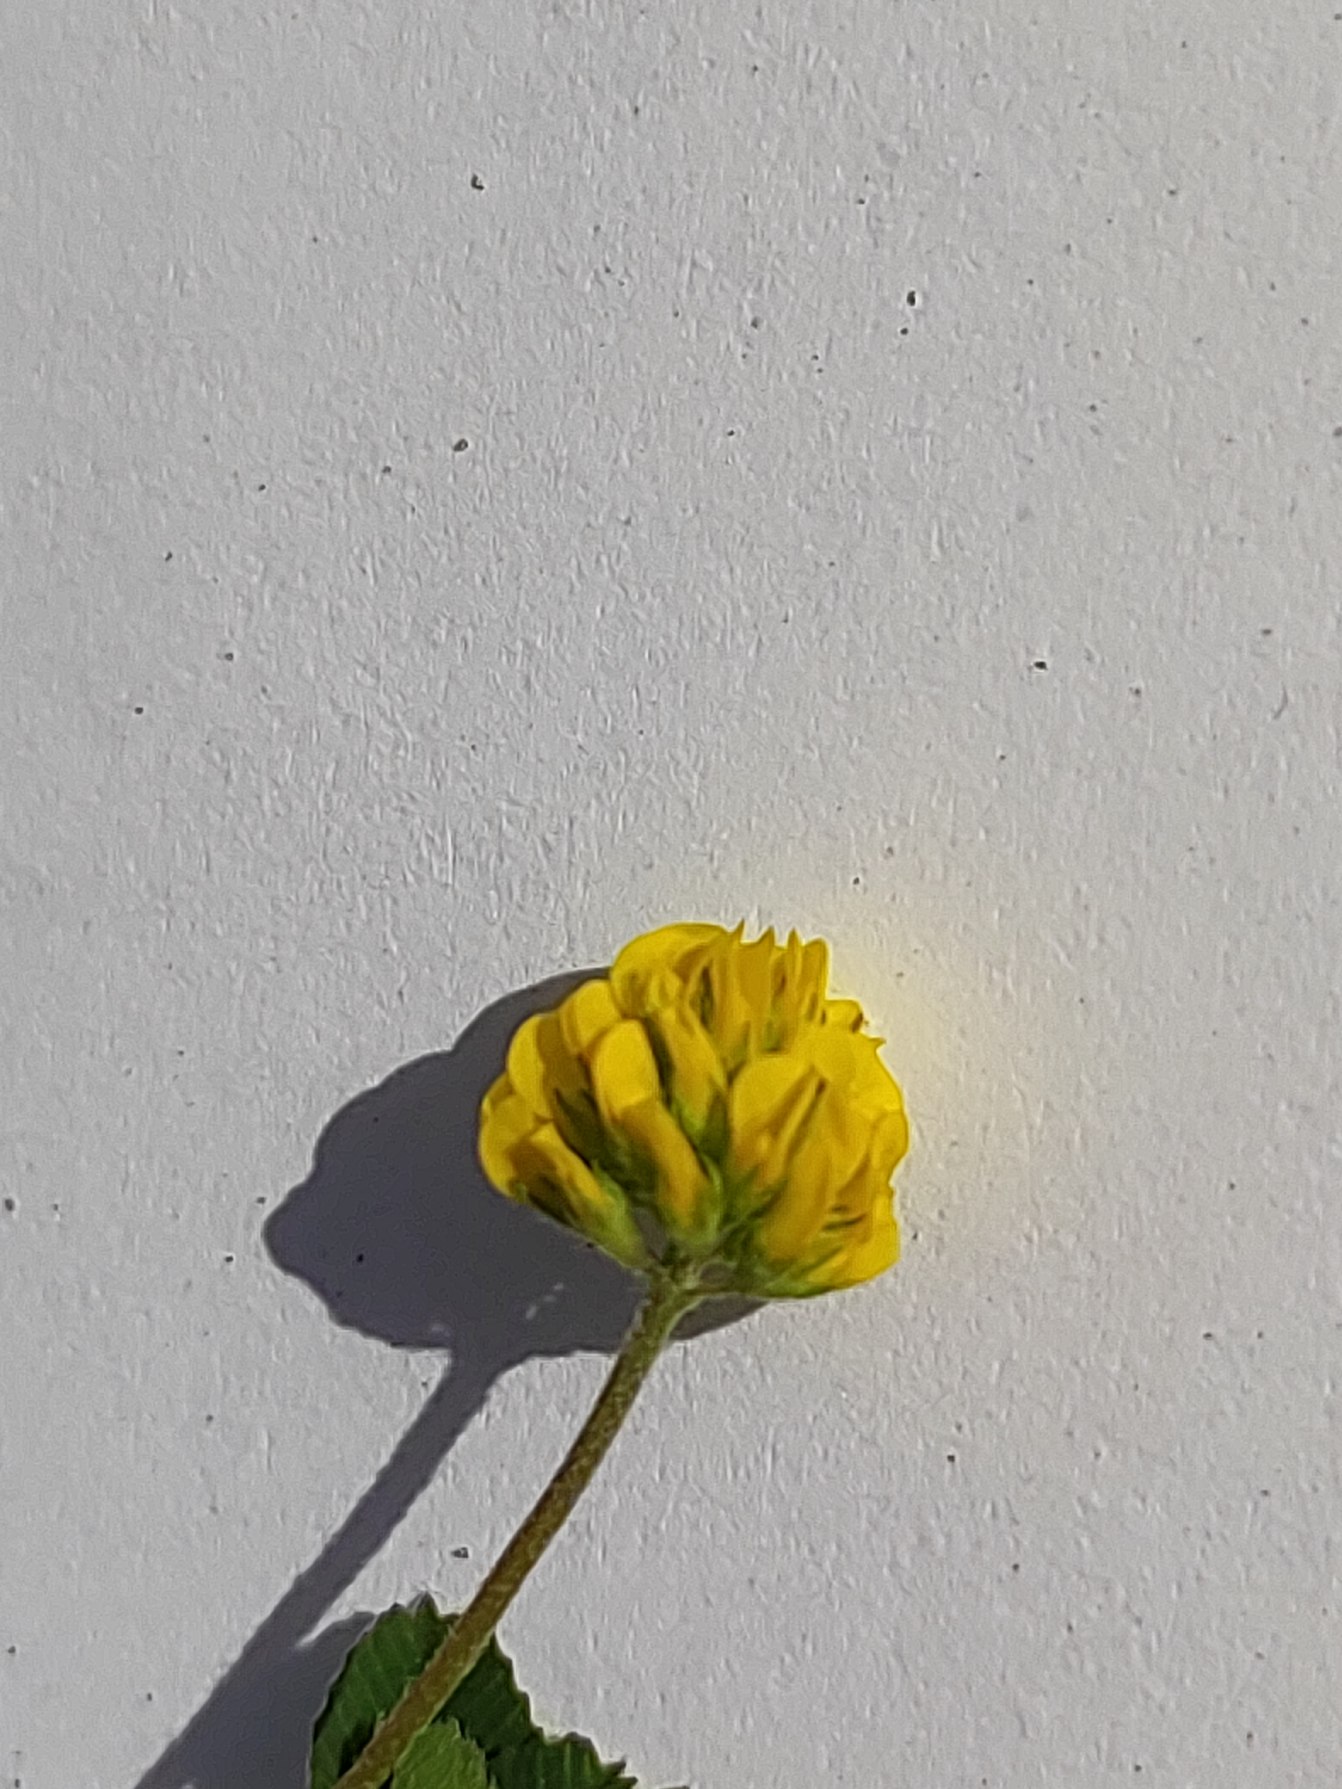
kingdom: Plantae
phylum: Tracheophyta
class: Magnoliopsida
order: Fabales
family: Fabaceae
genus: Medicago
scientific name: Medicago lupulina
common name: Humle-sneglebælg
